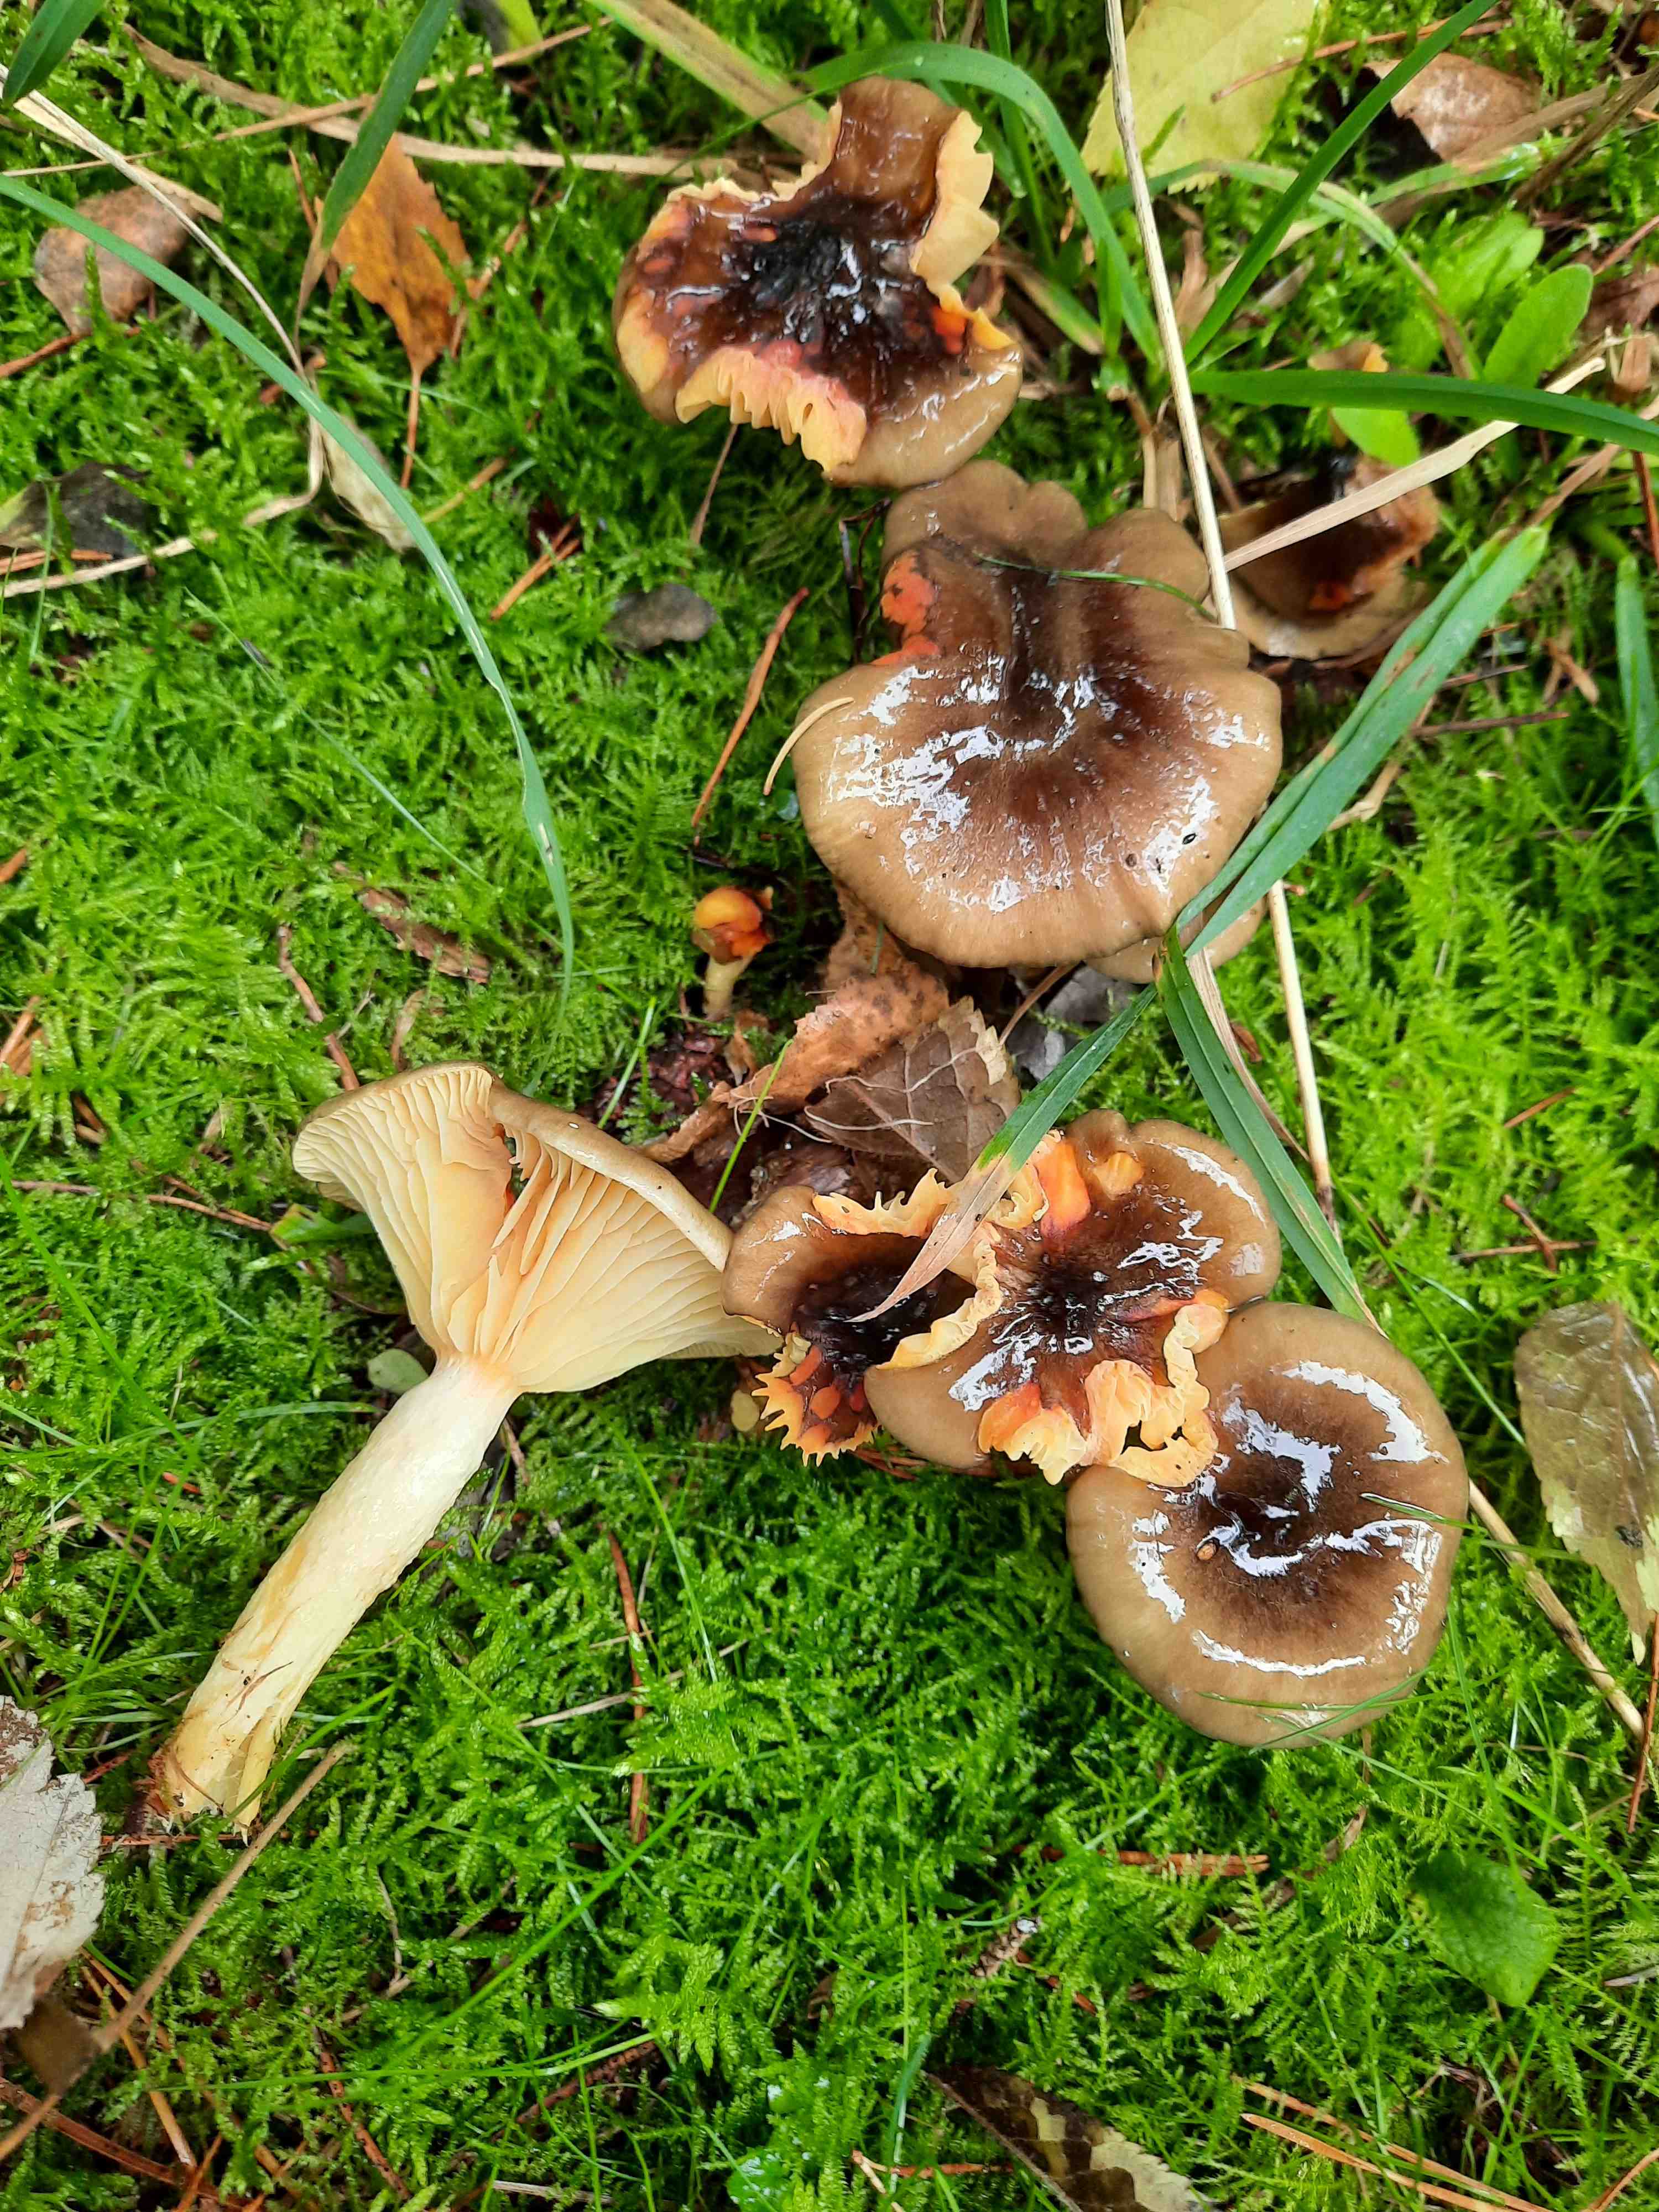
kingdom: Fungi
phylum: Basidiomycota
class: Agaricomycetes
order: Agaricales
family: Hygrophoraceae
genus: Hygrophorus
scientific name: Hygrophorus hypothejus
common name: frost-sneglehat
